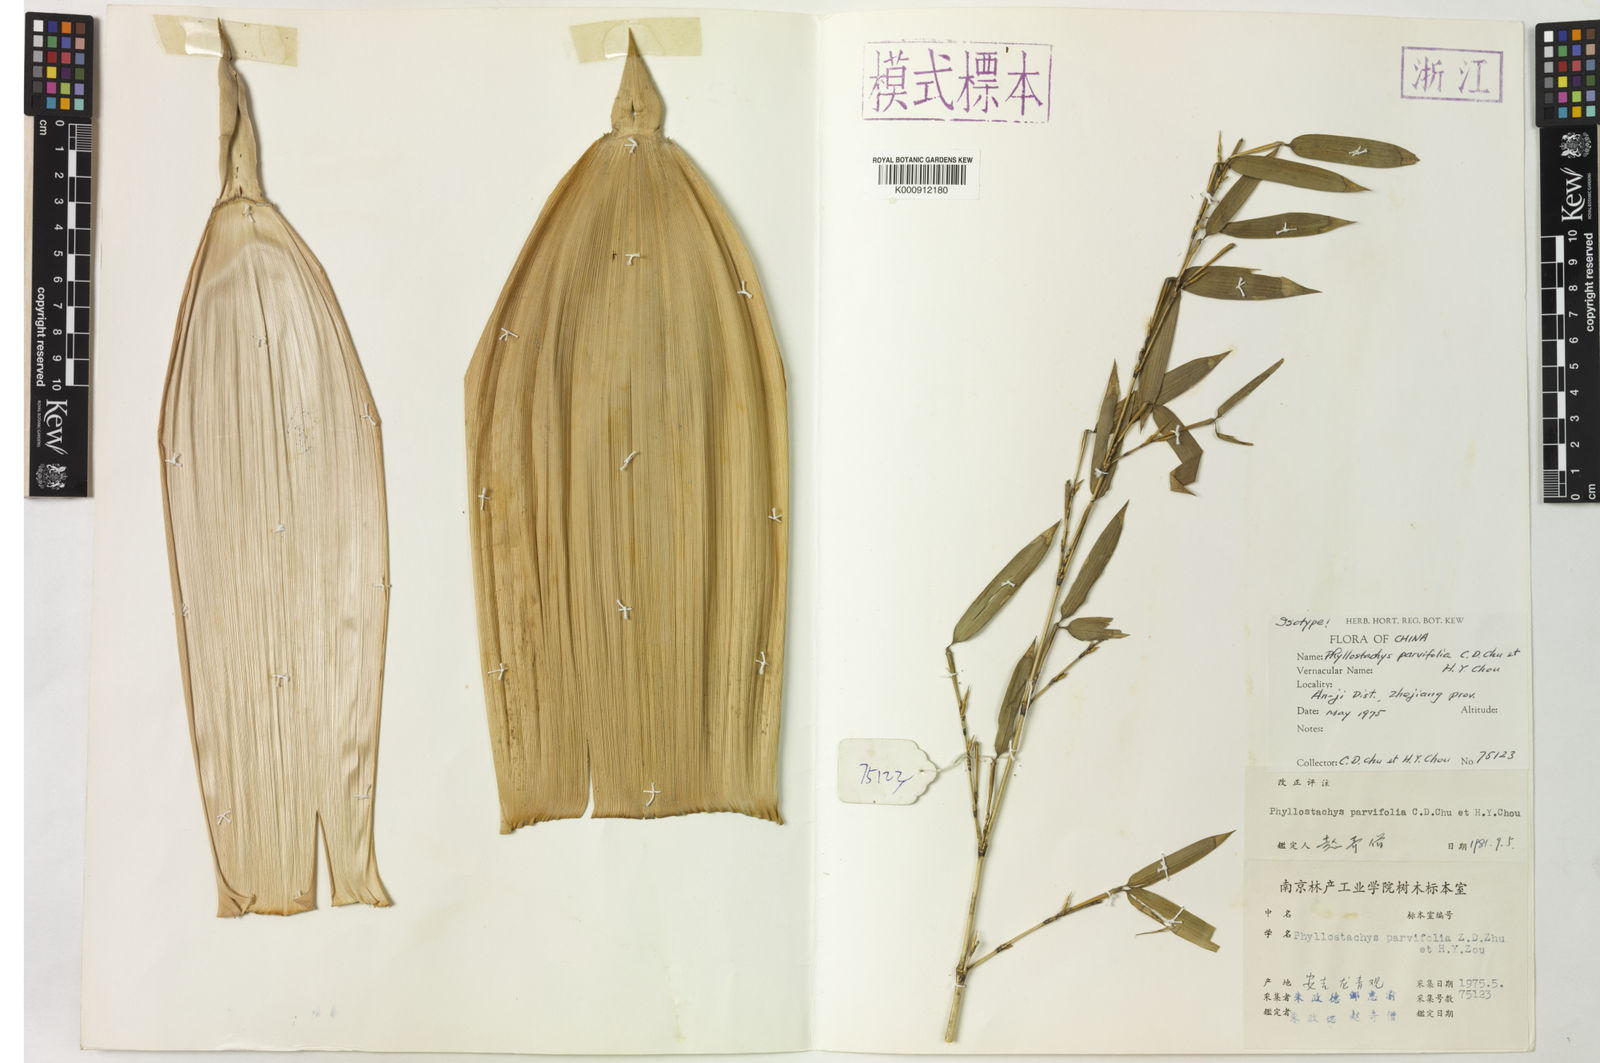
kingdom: Plantae
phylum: Tracheophyta
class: Liliopsida
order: Poales
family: Poaceae
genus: Phyllostachys
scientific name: Phyllostachys parvifolia
